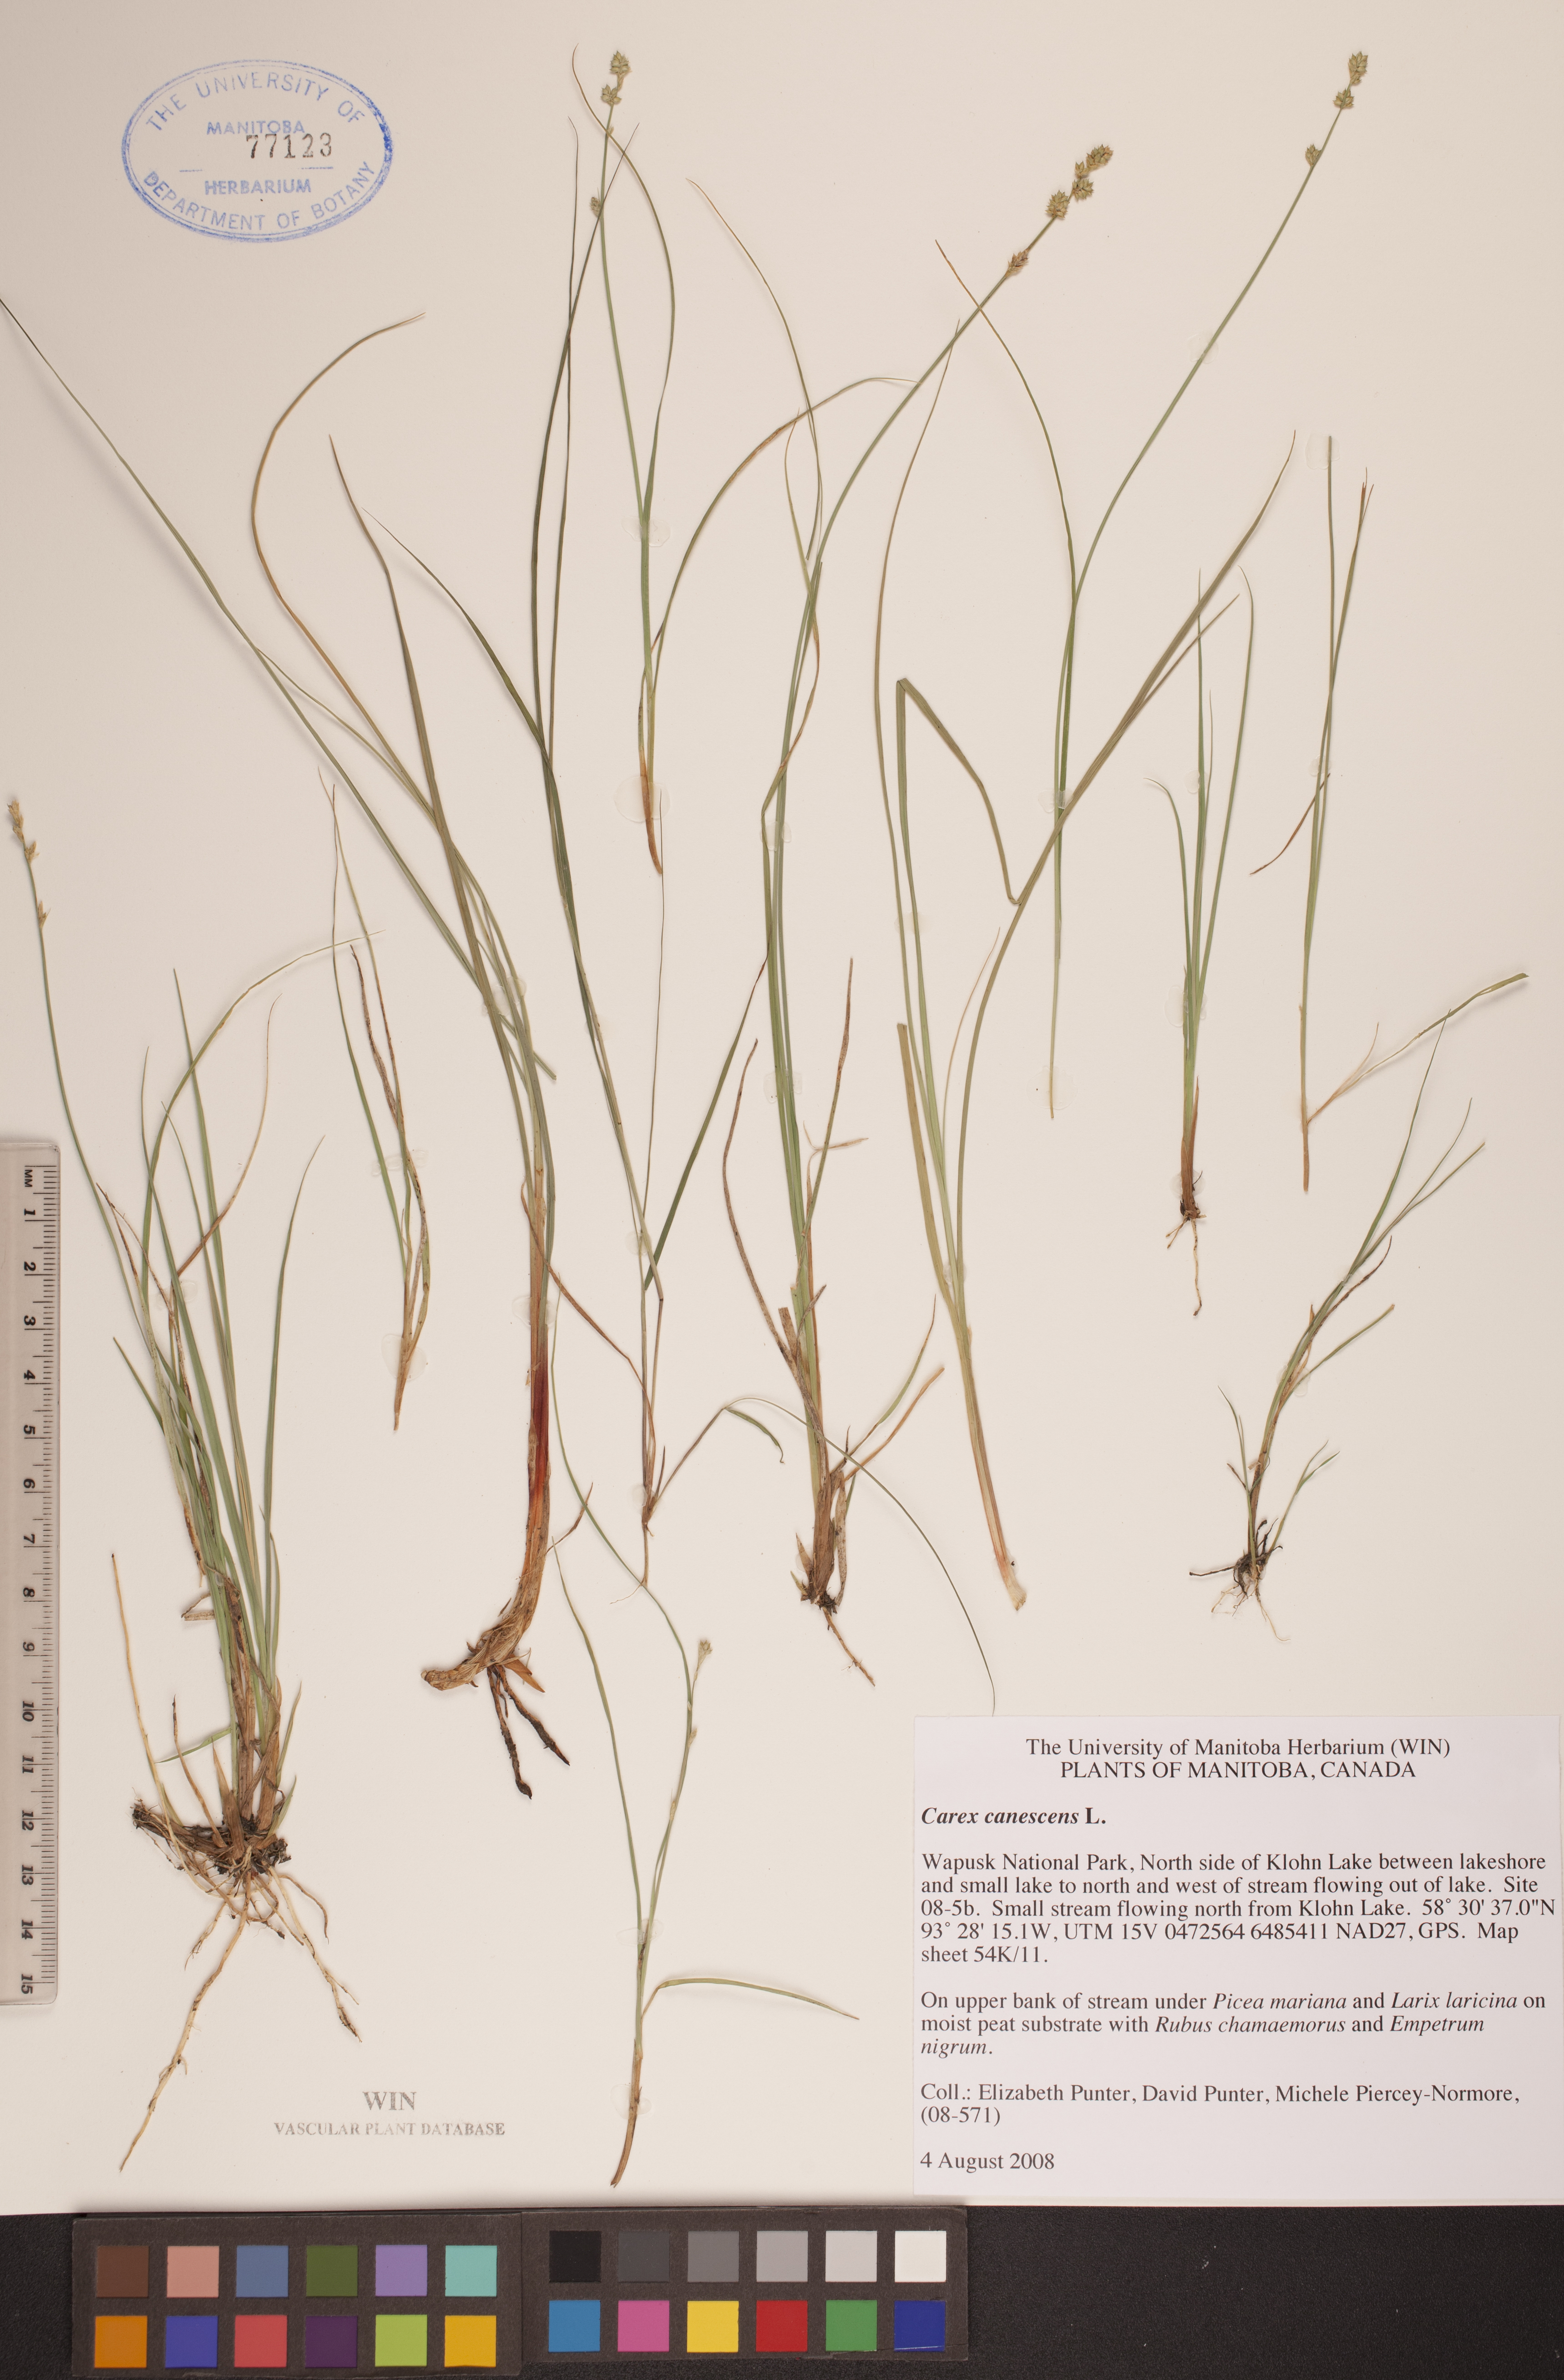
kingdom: Plantae
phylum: Tracheophyta
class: Liliopsida
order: Poales
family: Cyperaceae
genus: Carex
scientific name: Carex canescens
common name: White sedge
